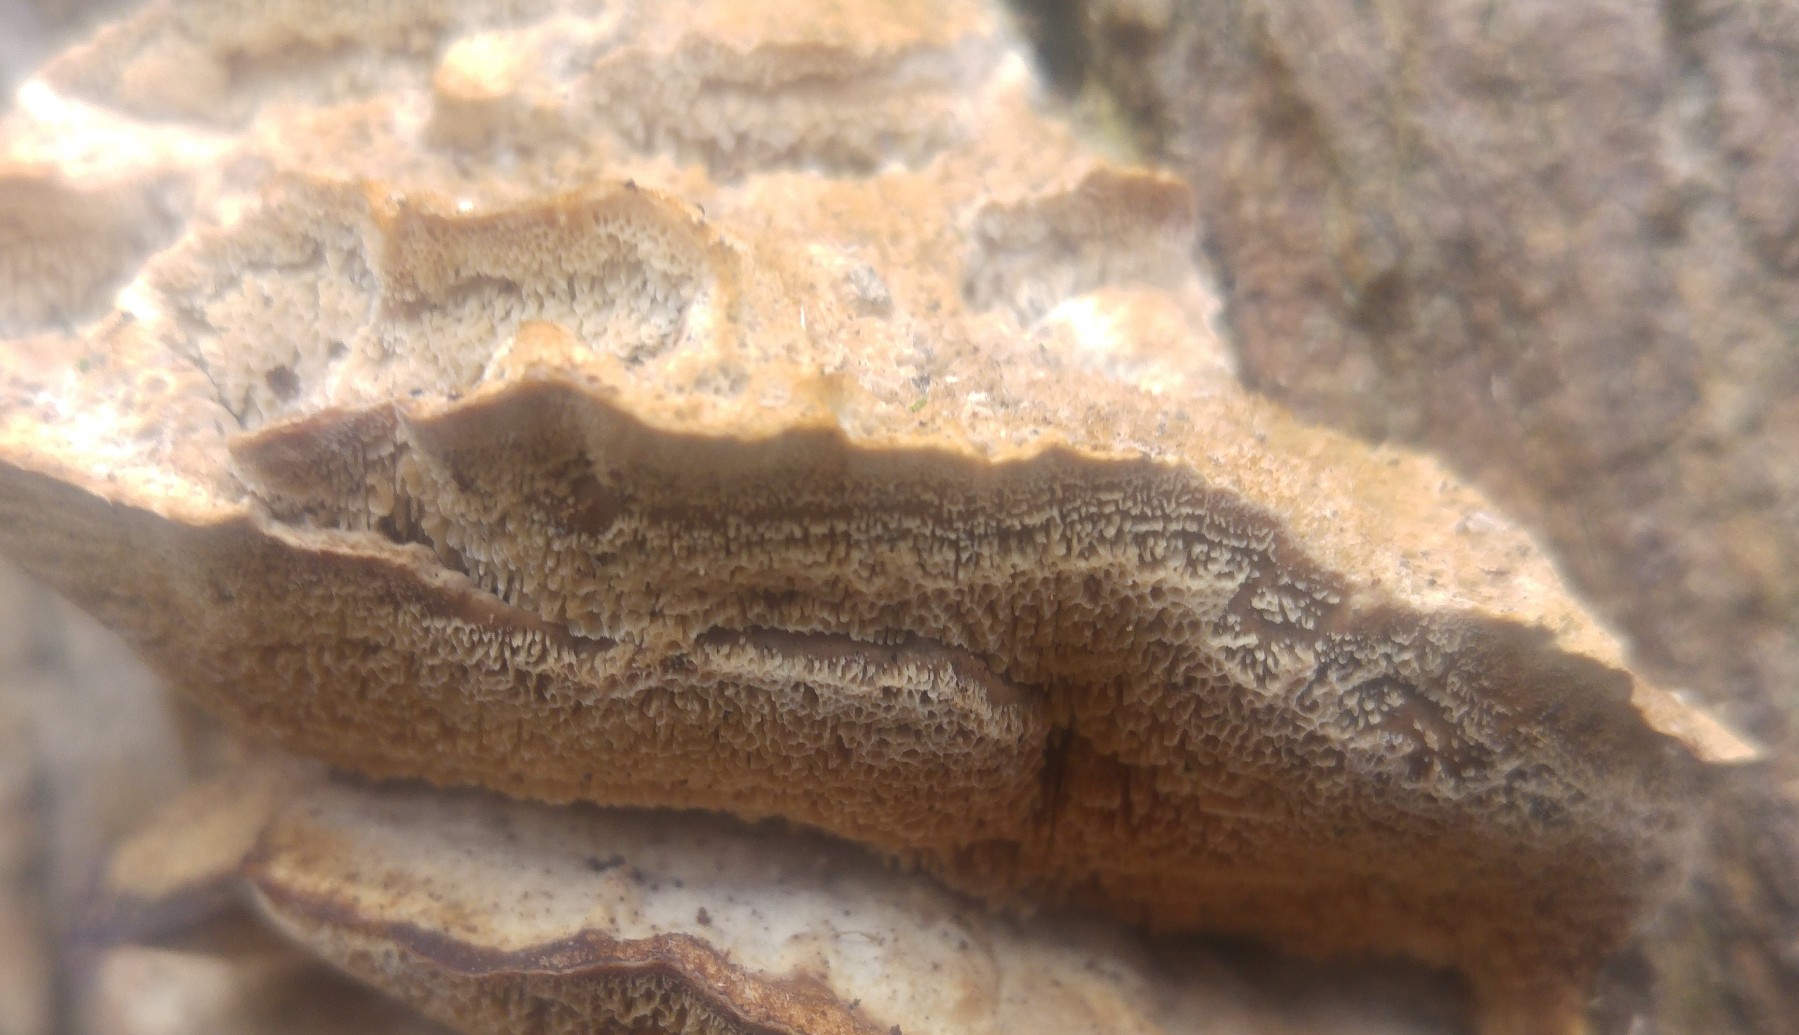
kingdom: Fungi
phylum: Basidiomycota
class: Agaricomycetes
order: Polyporales
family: Phanerochaetaceae
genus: Bjerkandera
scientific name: Bjerkandera fumosa
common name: grågul sodporesvamp
